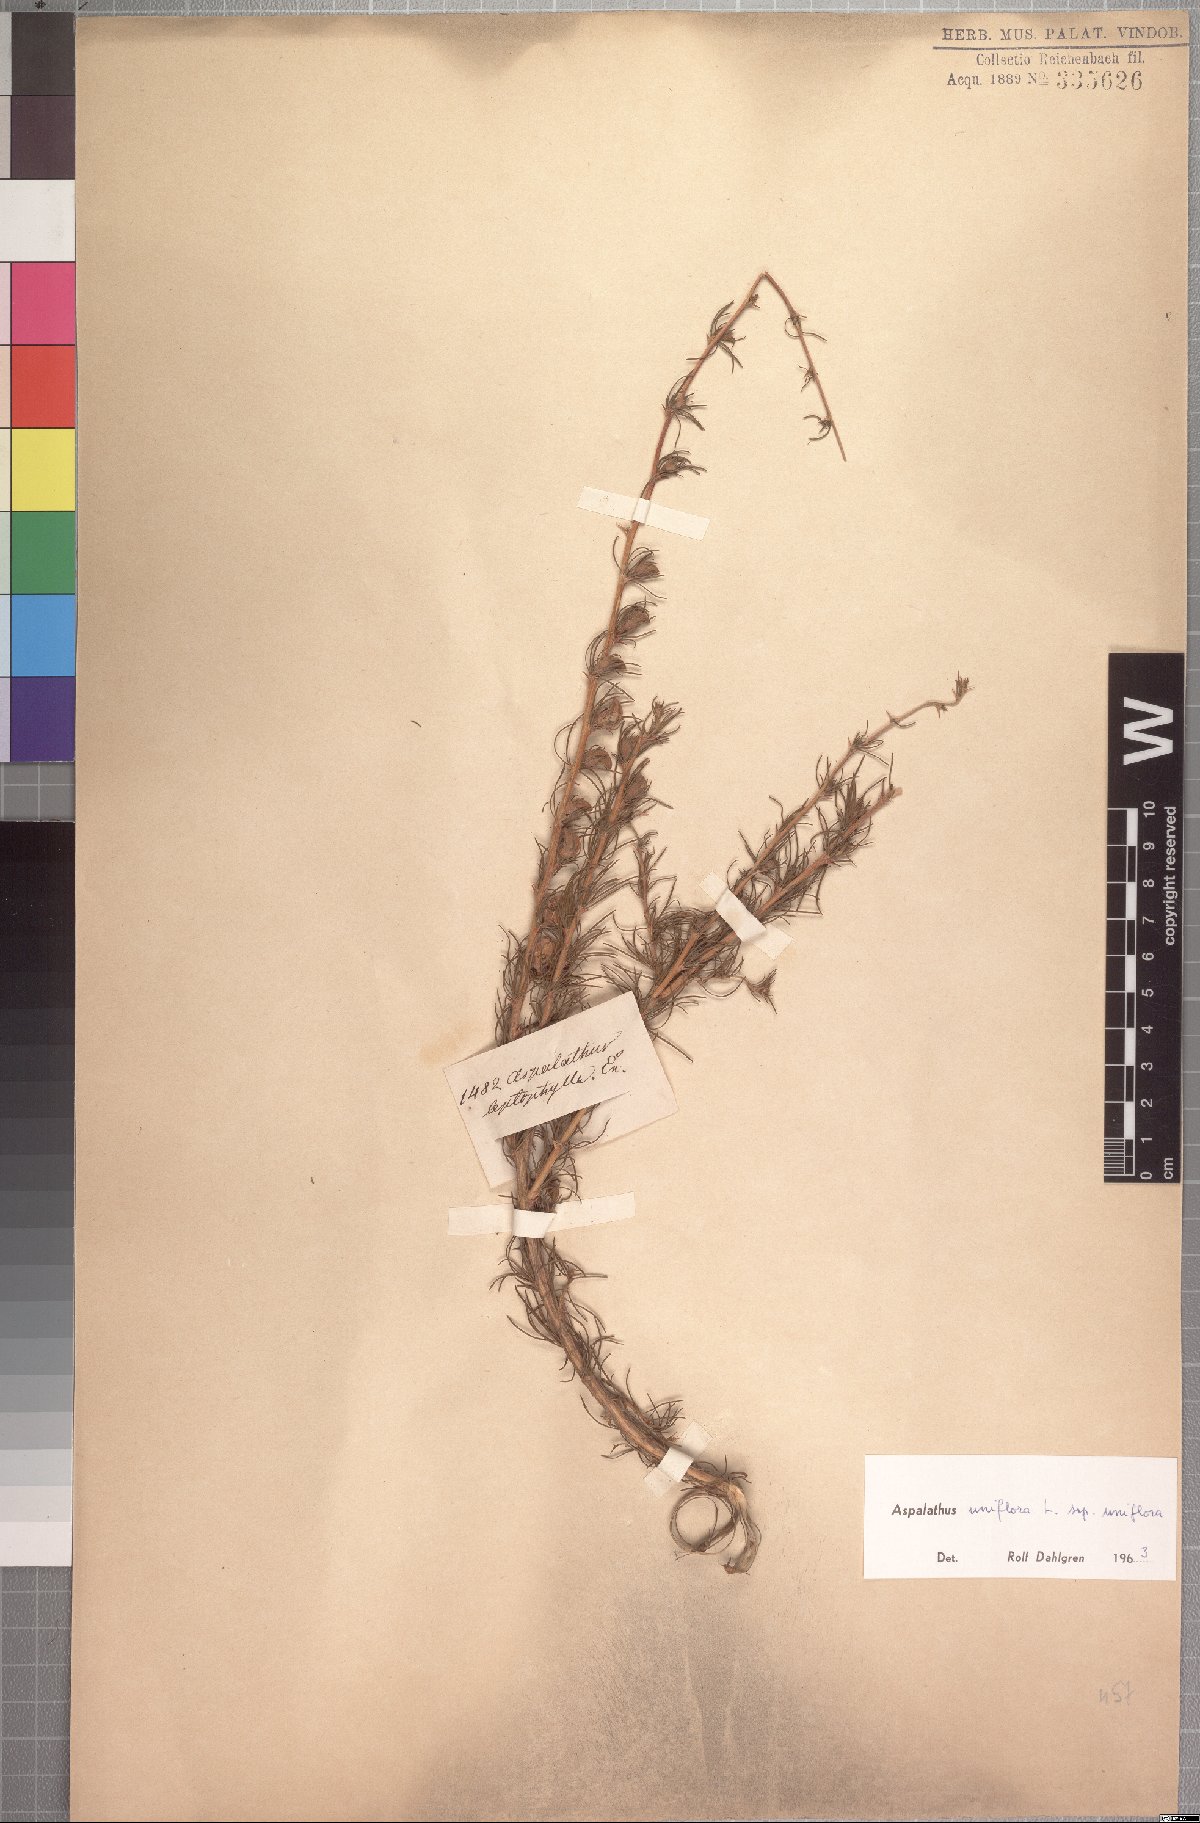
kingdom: Plantae
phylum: Tracheophyta
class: Magnoliopsida
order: Fabales
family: Fabaceae
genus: Aspalathus
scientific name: Aspalathus uniflora
